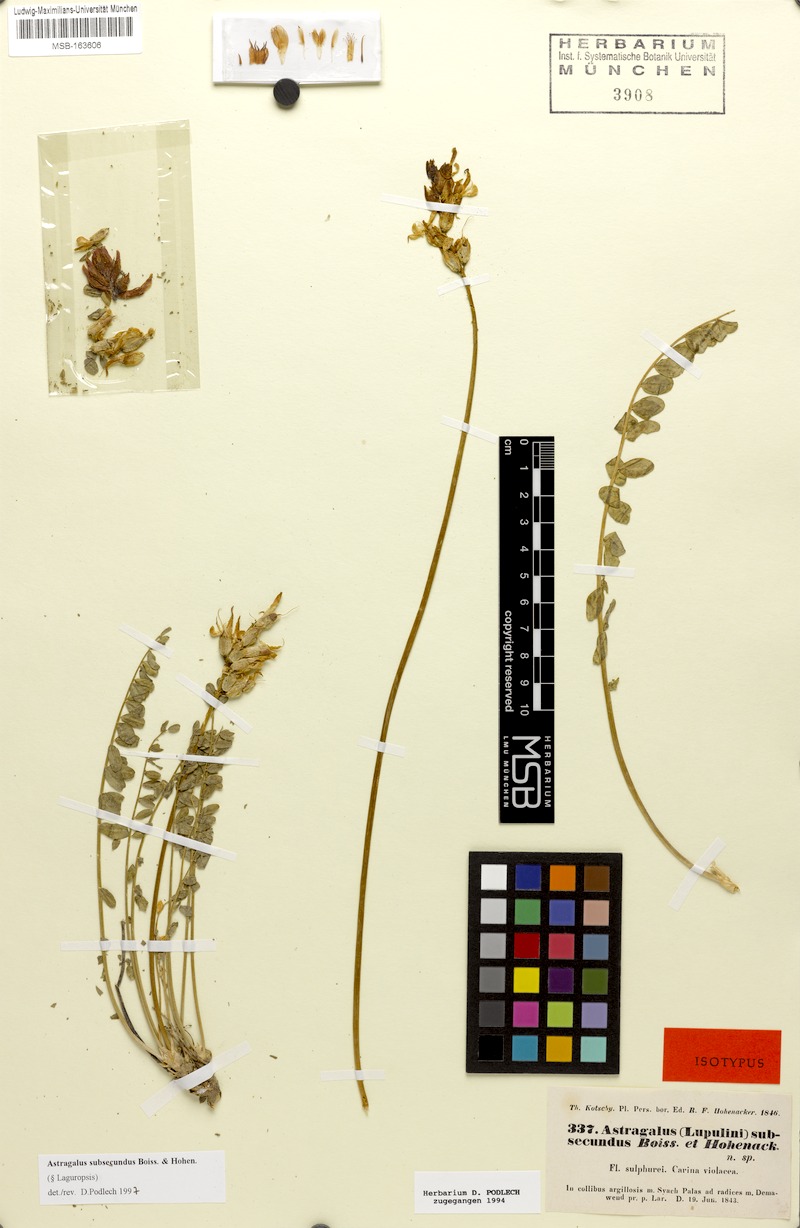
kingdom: Plantae
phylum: Tracheophyta
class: Magnoliopsida
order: Fabales
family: Fabaceae
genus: Astragalus
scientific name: Astragalus subsecundus
